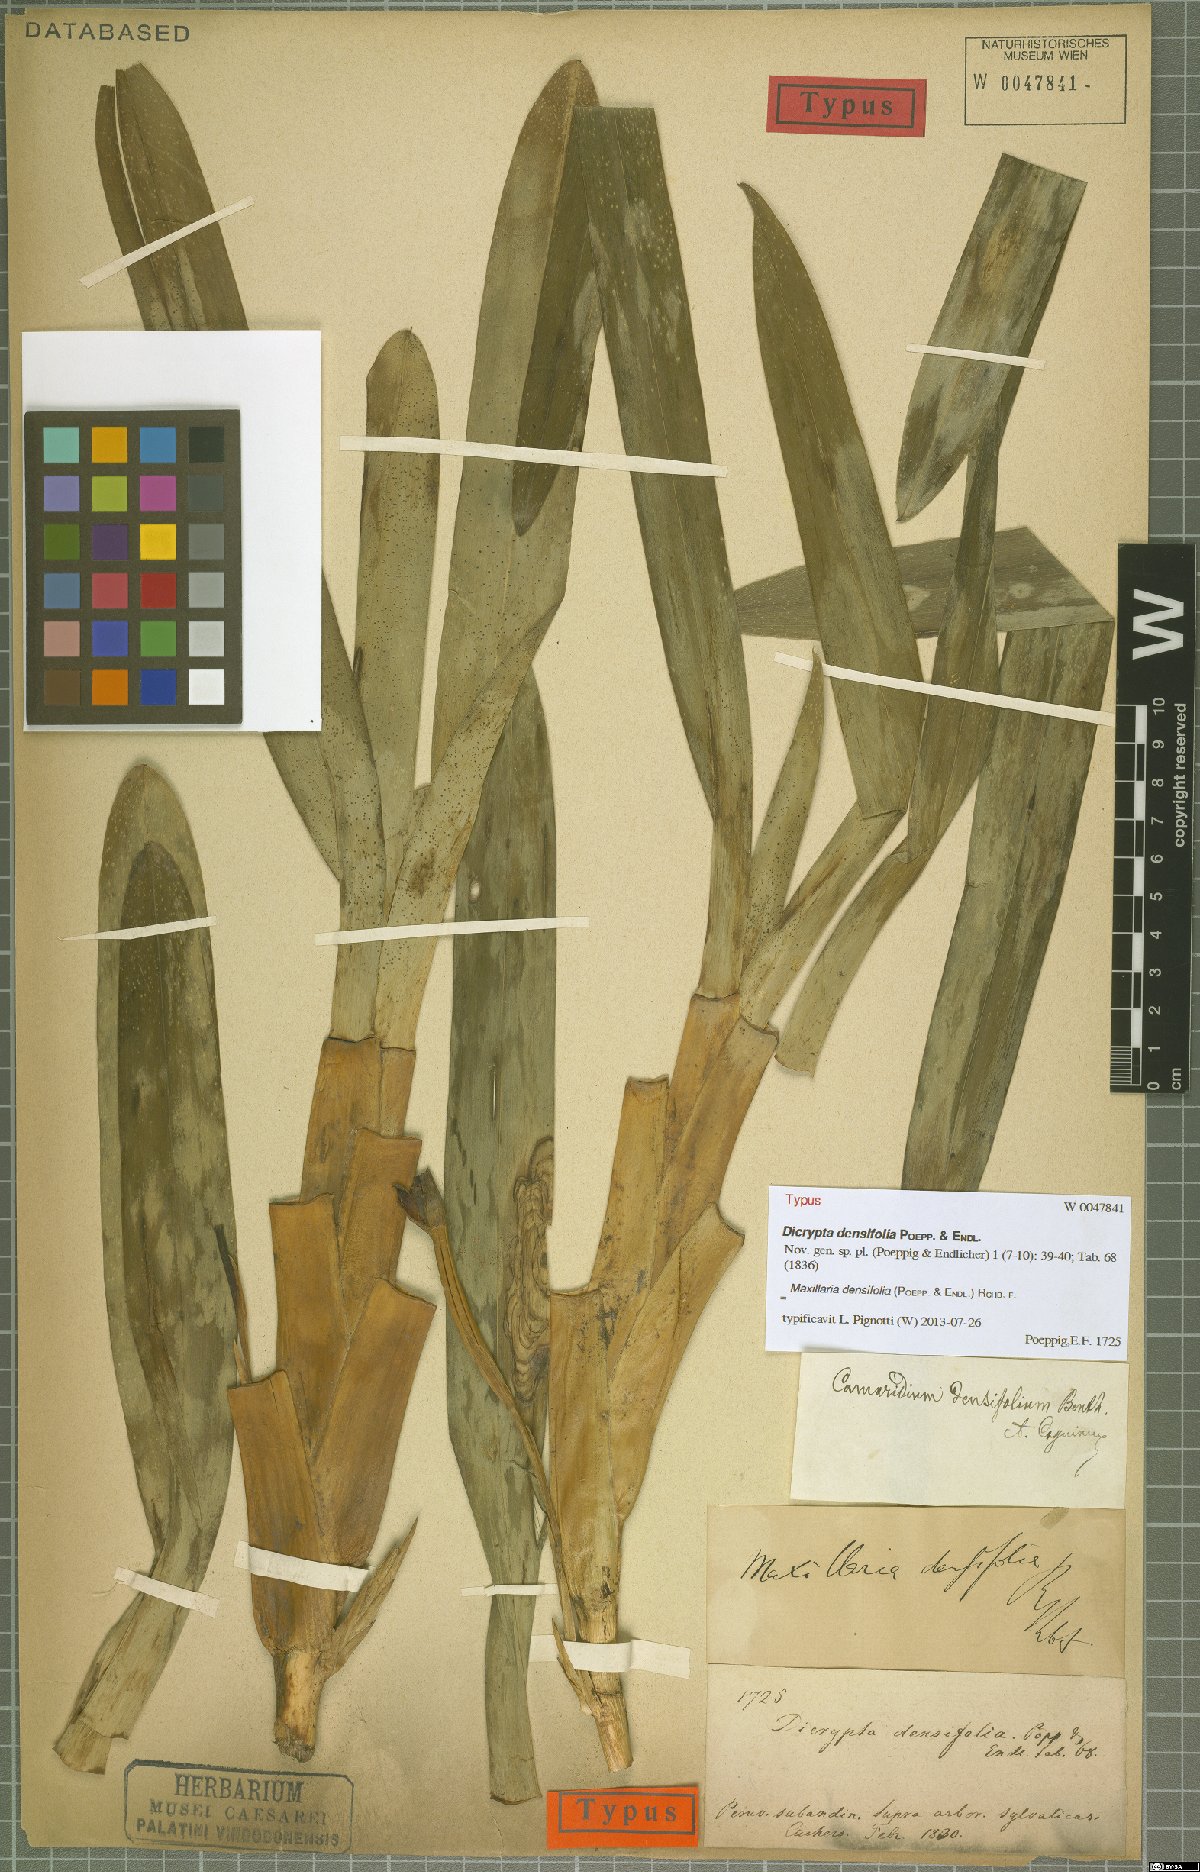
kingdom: Plantae
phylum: Tracheophyta
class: Liliopsida
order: Asparagales
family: Orchidaceae
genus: Maxillaria
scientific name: Maxillaria densifolia
